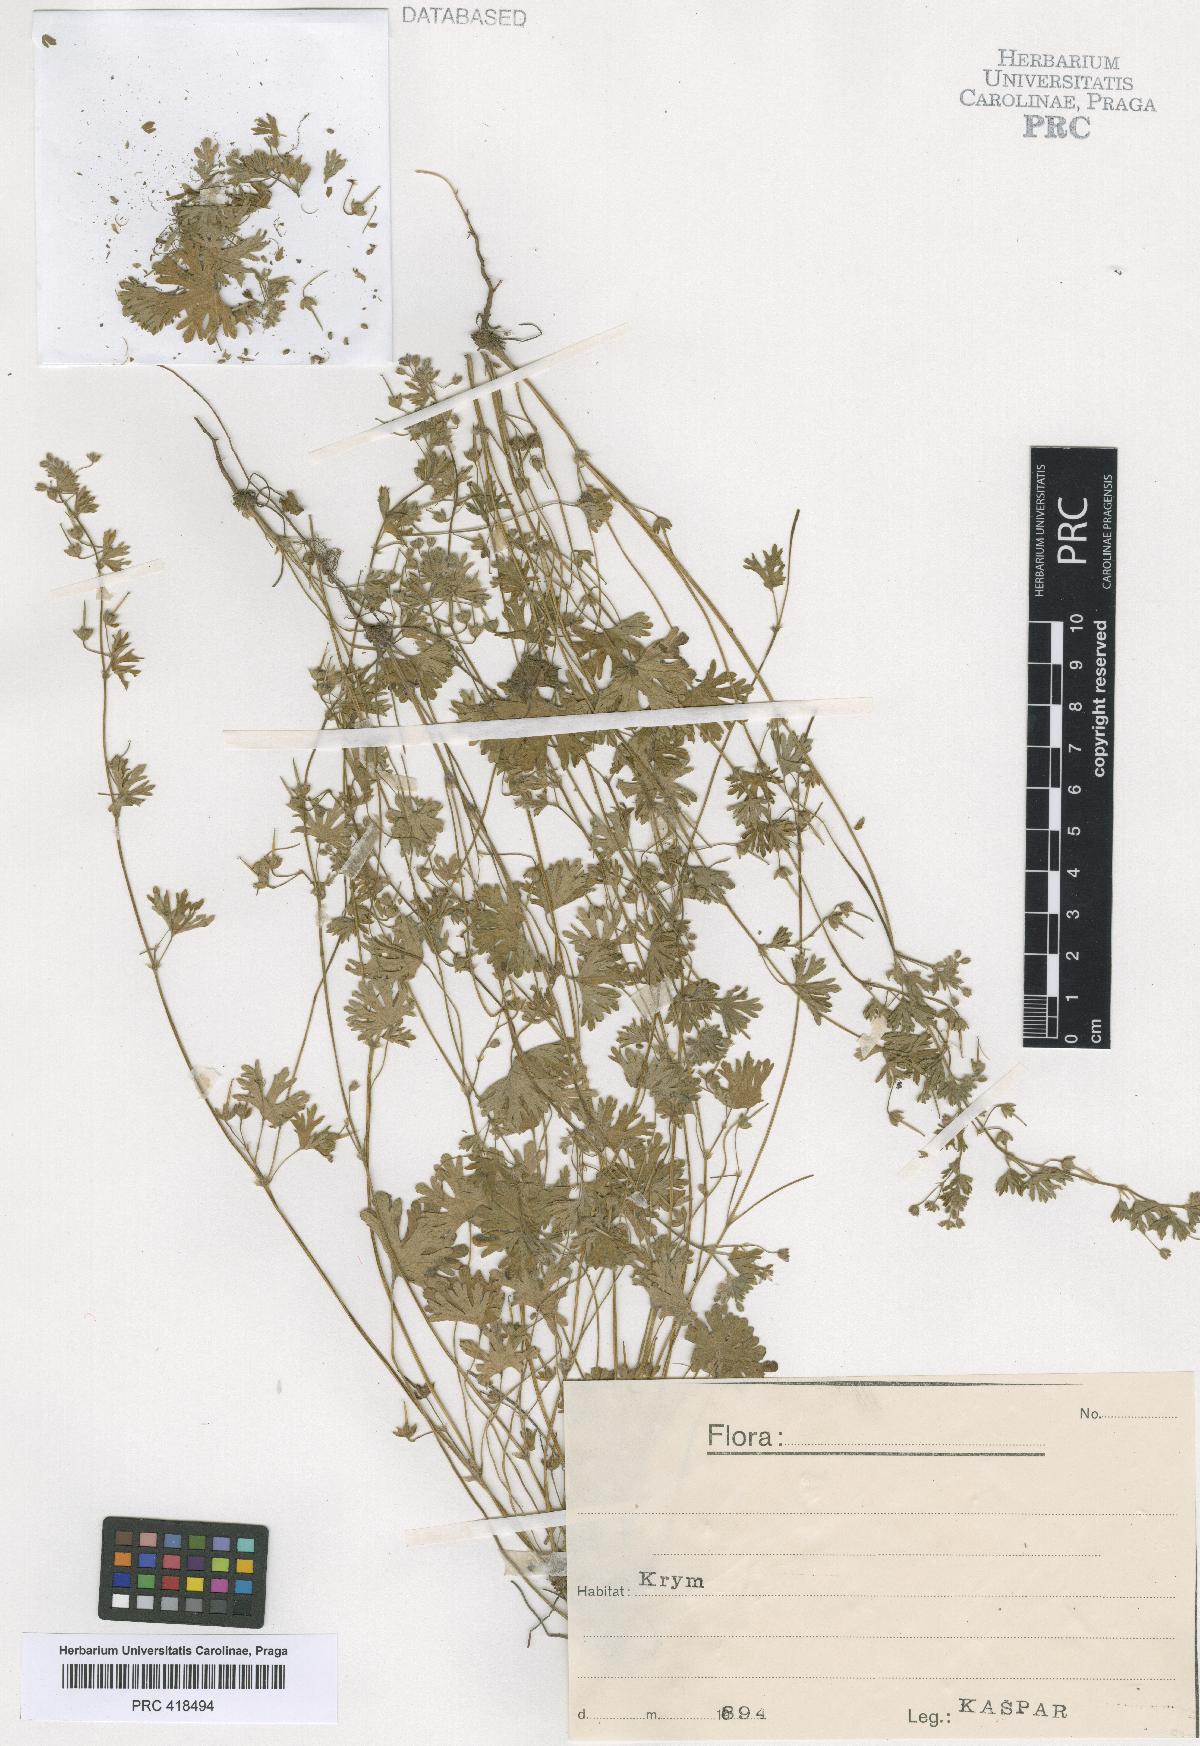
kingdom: Plantae
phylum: Tracheophyta
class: Magnoliopsida
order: Geraniales
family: Geraniaceae
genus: Geranium
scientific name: Geranium pusillum
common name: Small geranium
